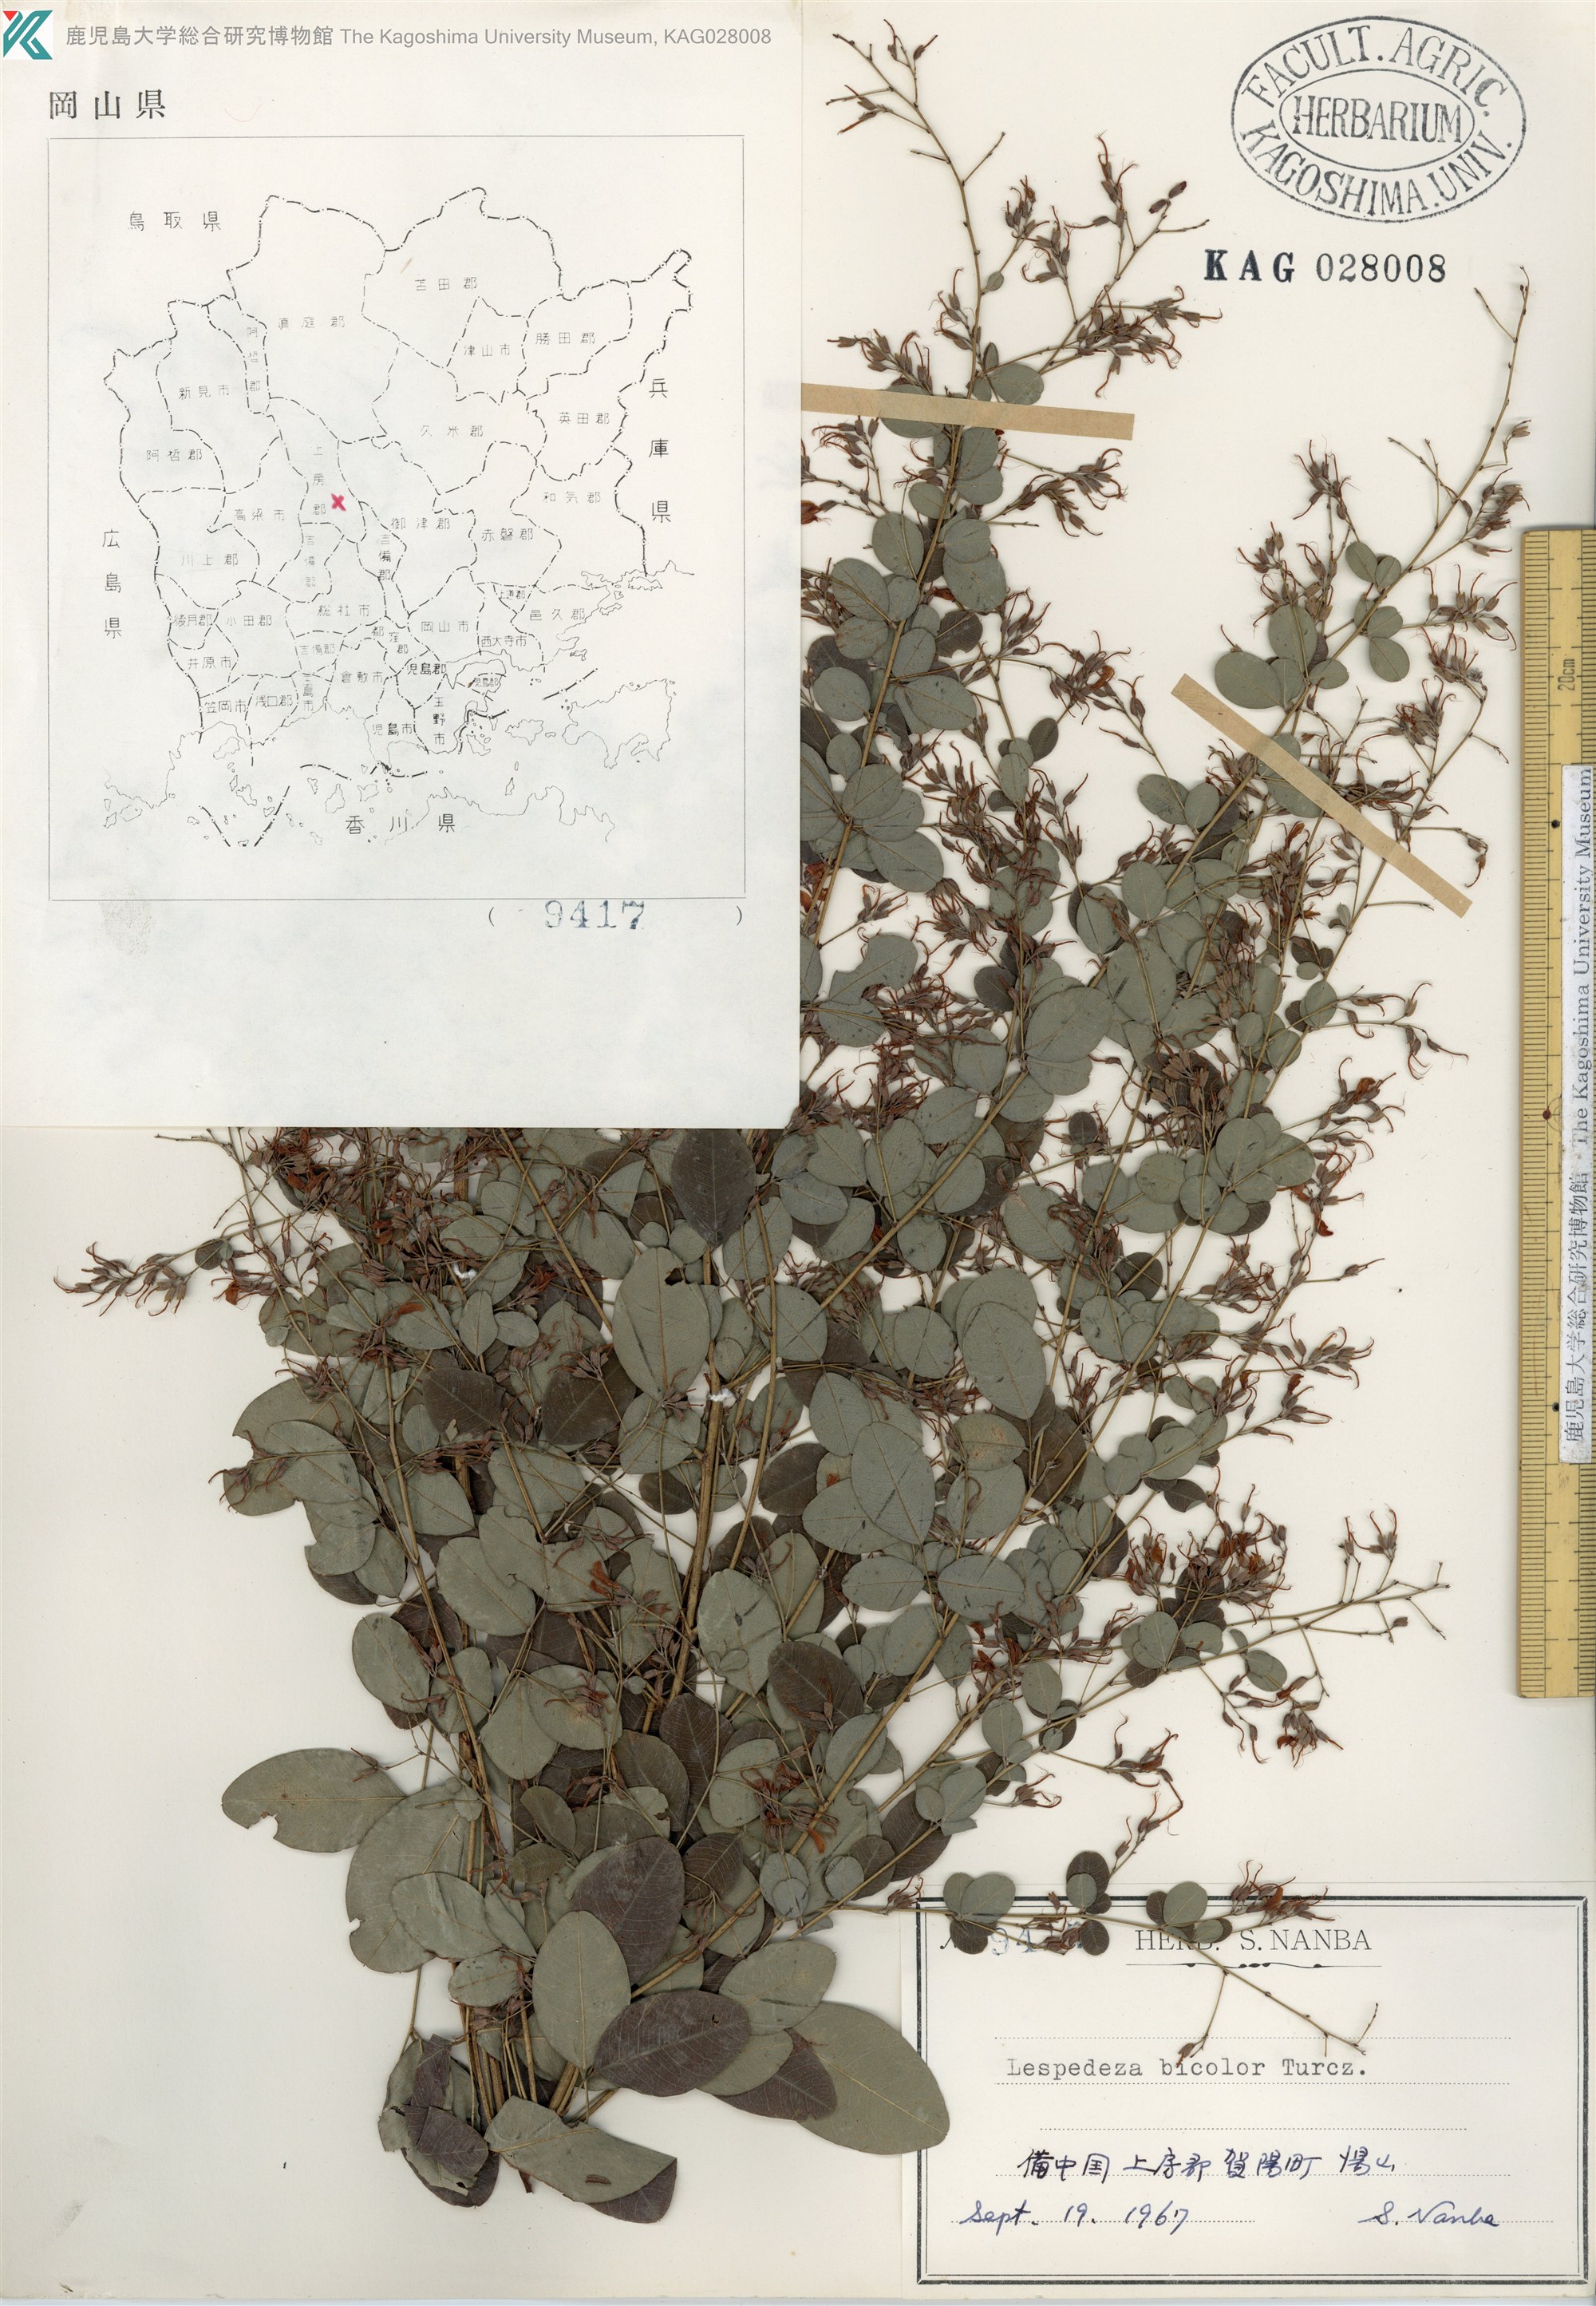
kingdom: Plantae
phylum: Tracheophyta
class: Magnoliopsida
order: Fabales
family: Fabaceae
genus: Lespedeza
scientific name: Lespedeza bicolor
